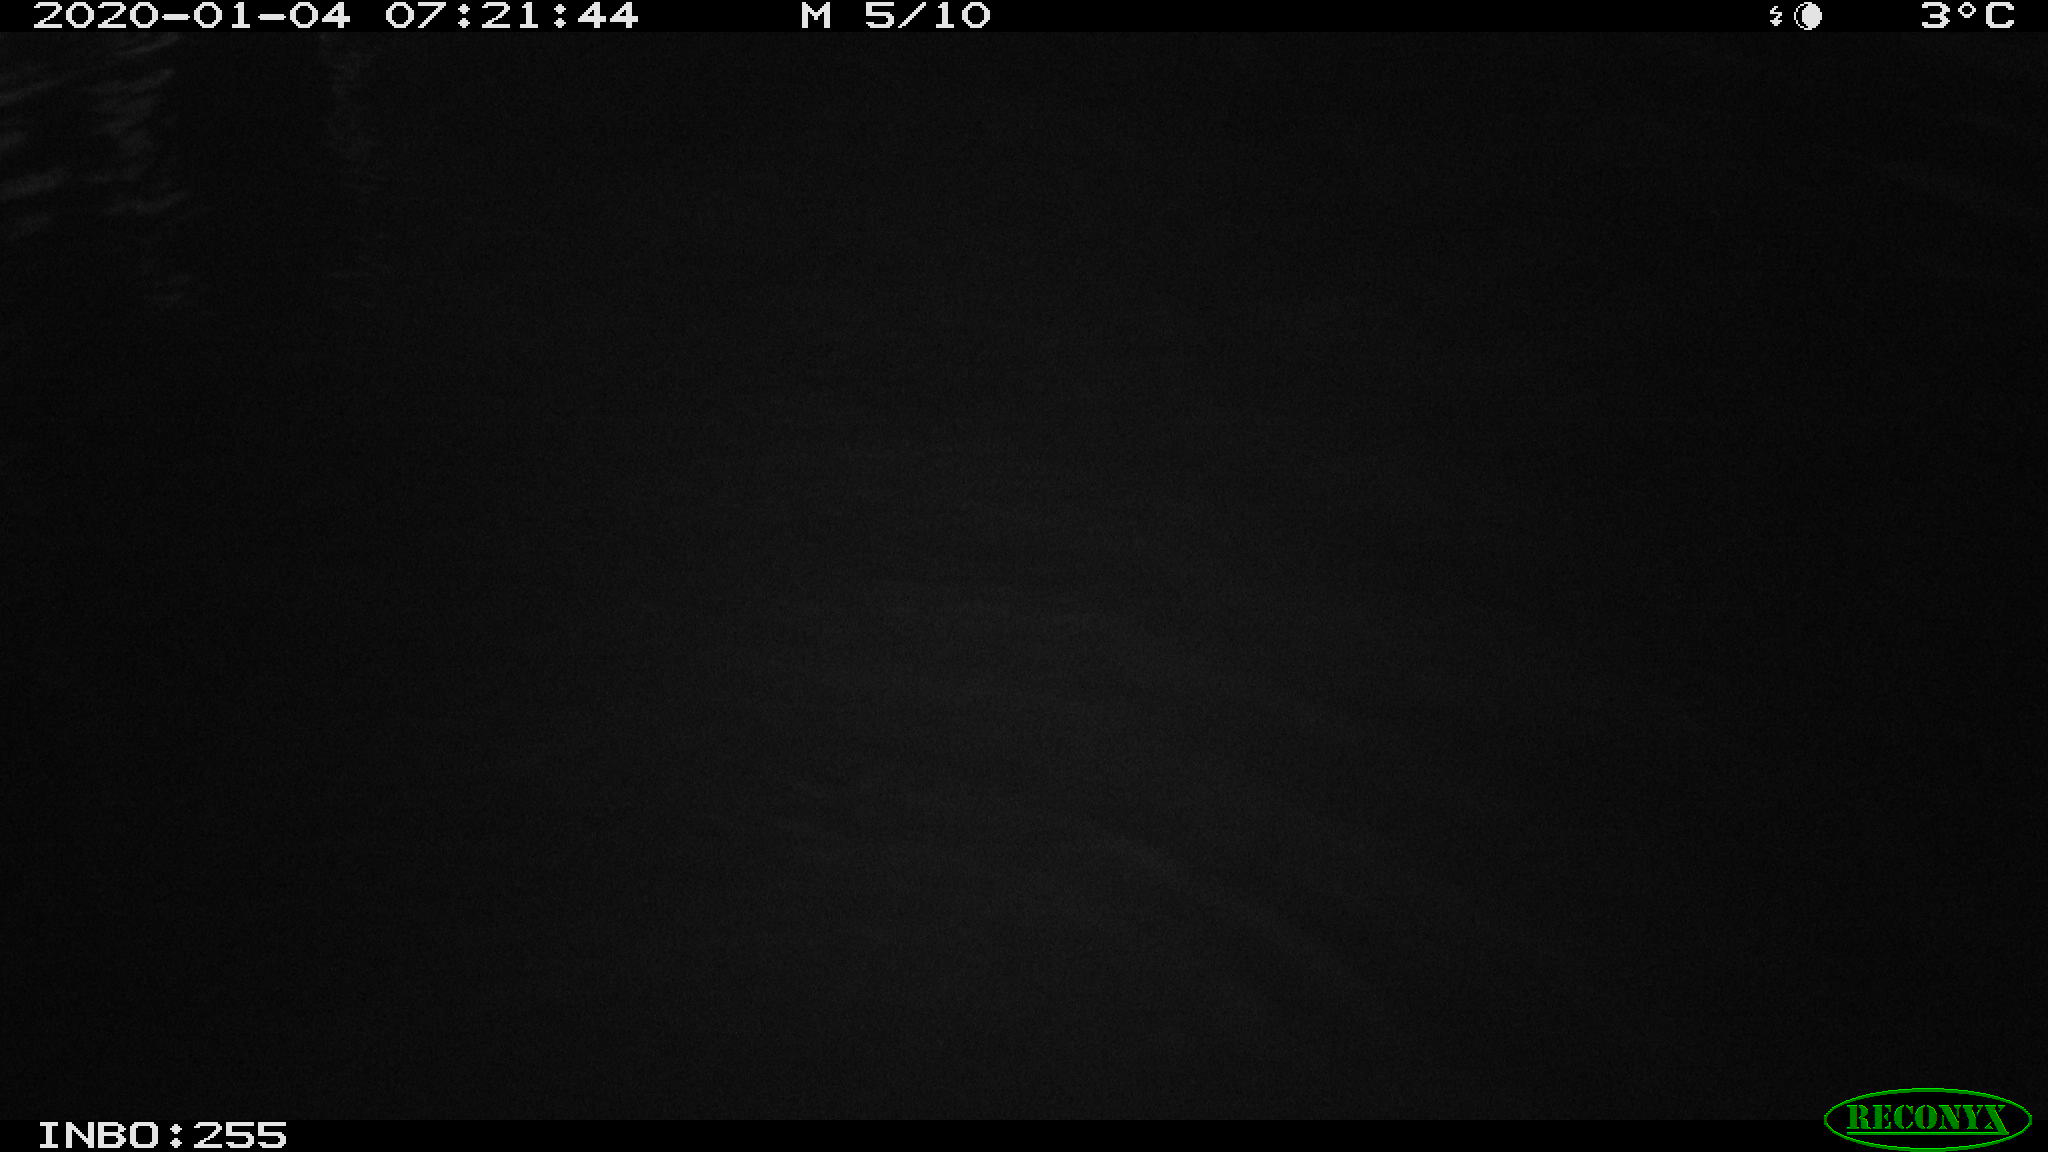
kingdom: Animalia
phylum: Chordata
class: Aves
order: Anseriformes
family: Anatidae
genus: Anas
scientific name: Anas platyrhynchos
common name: Mallard
